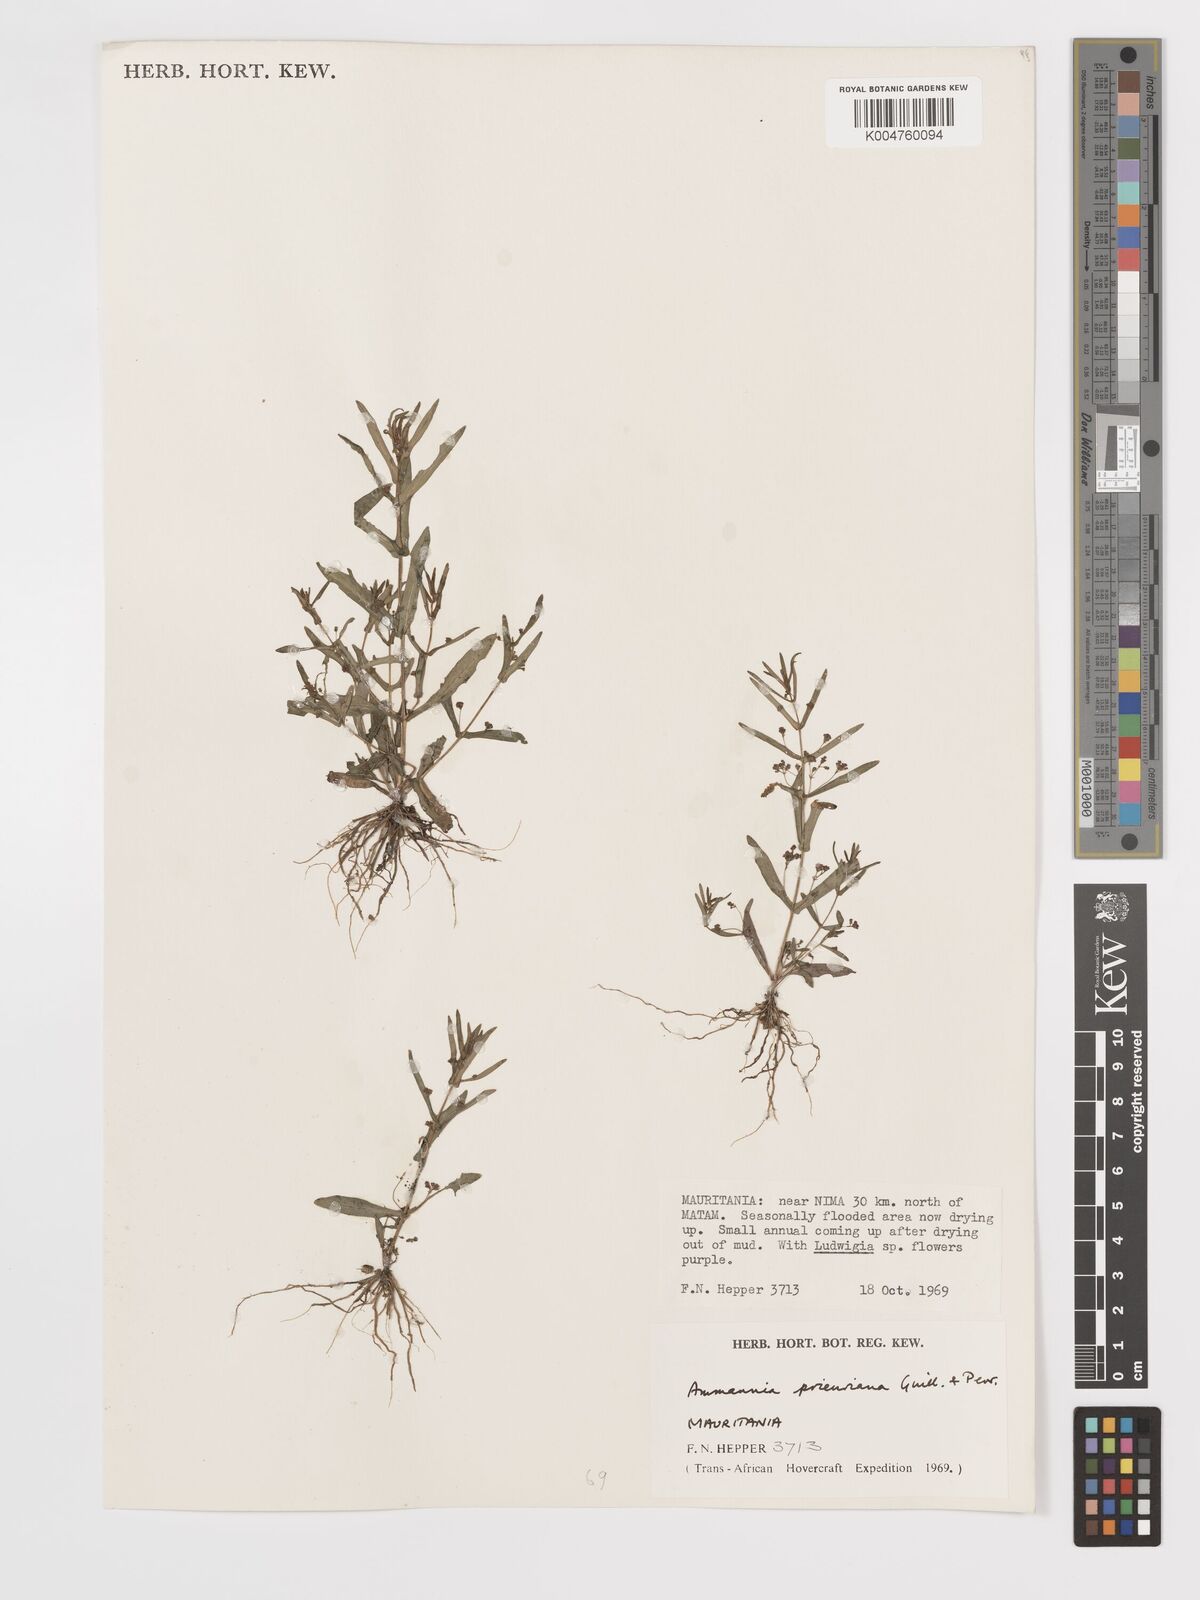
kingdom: Plantae
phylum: Tracheophyta
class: Magnoliopsida
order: Myrtales
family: Lythraceae
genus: Ammannia
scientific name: Ammannia prieuriana
